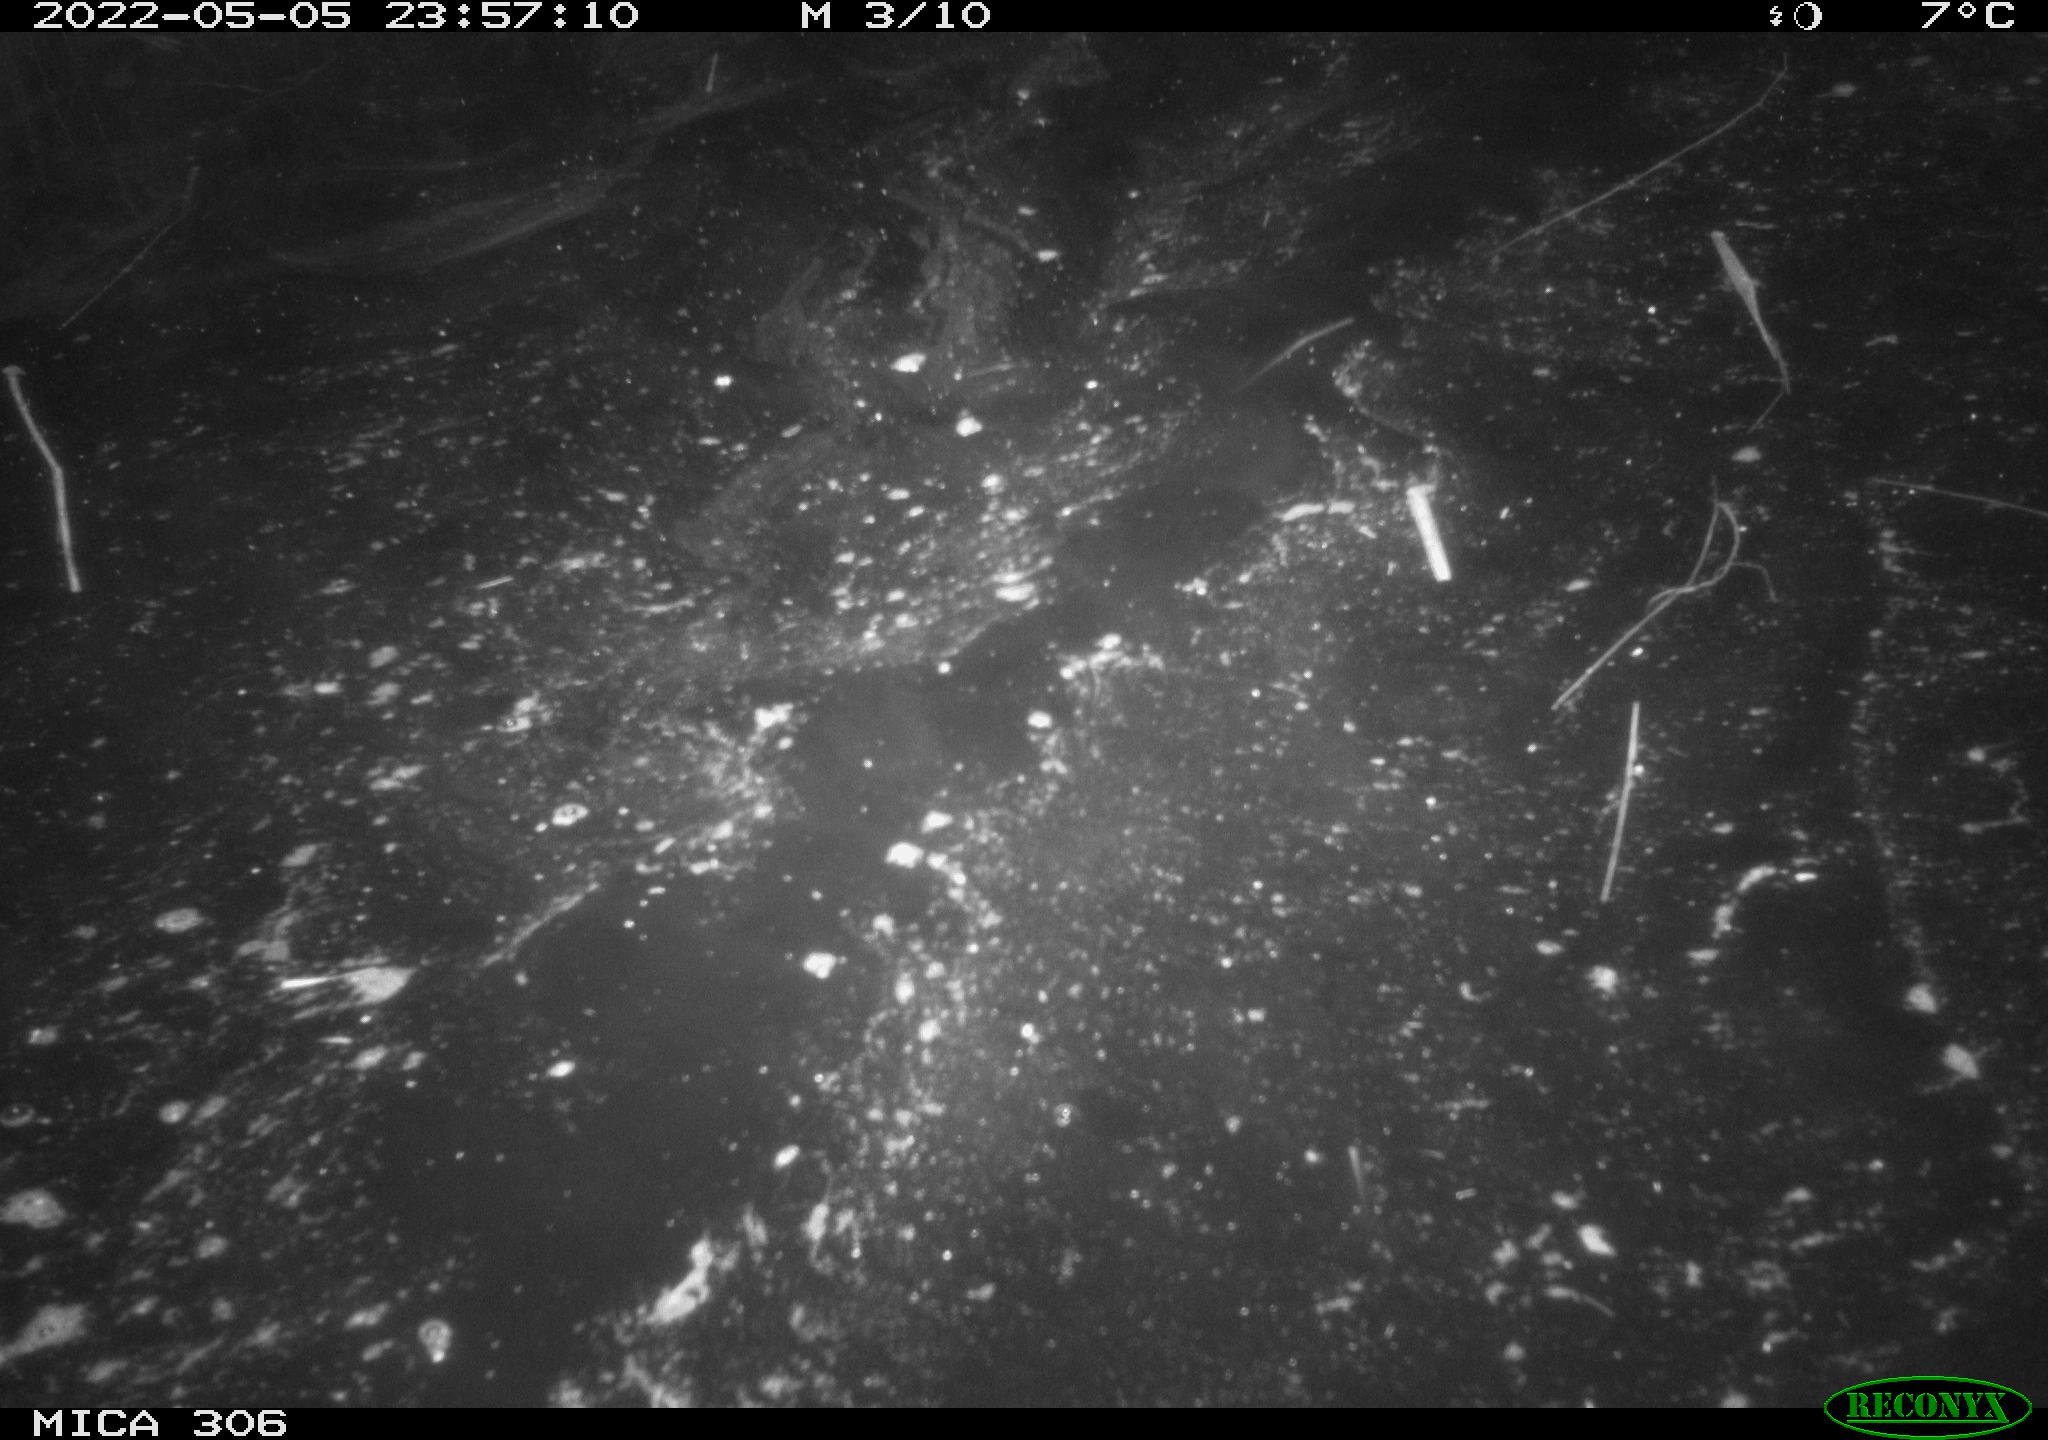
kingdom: Animalia
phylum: Chordata
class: Mammalia
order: Rodentia
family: Cricetidae
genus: Ondatra
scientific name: Ondatra zibethicus
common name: Muskrat
